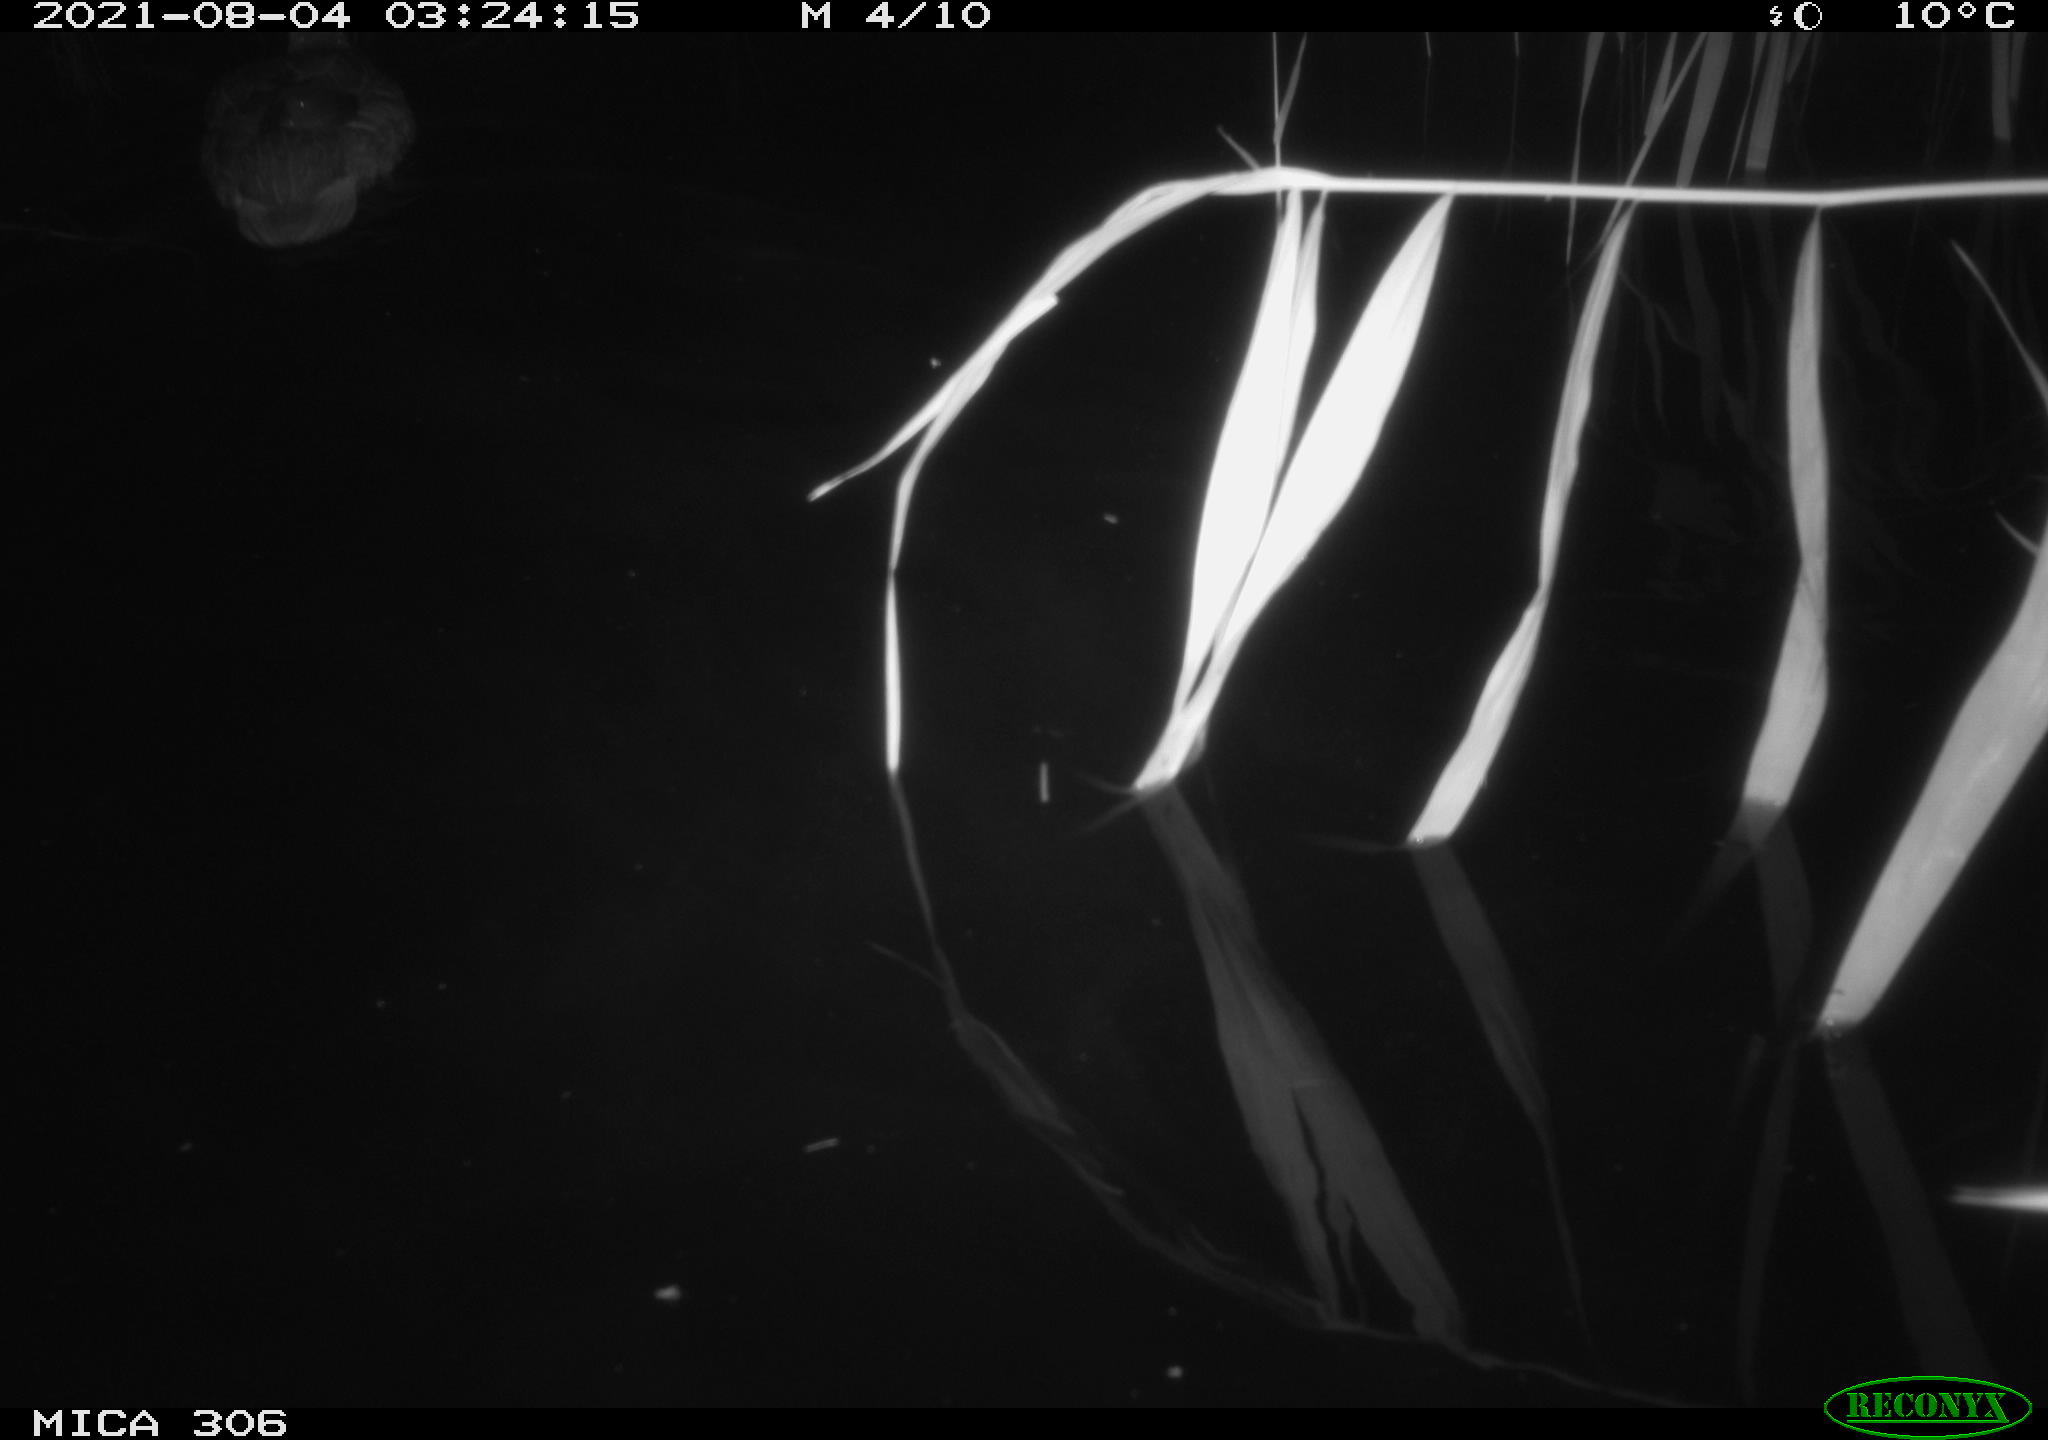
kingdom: Animalia
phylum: Chordata
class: Aves
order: Anseriformes
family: Anatidae
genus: Anas
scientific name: Anas platyrhynchos
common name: Mallard
